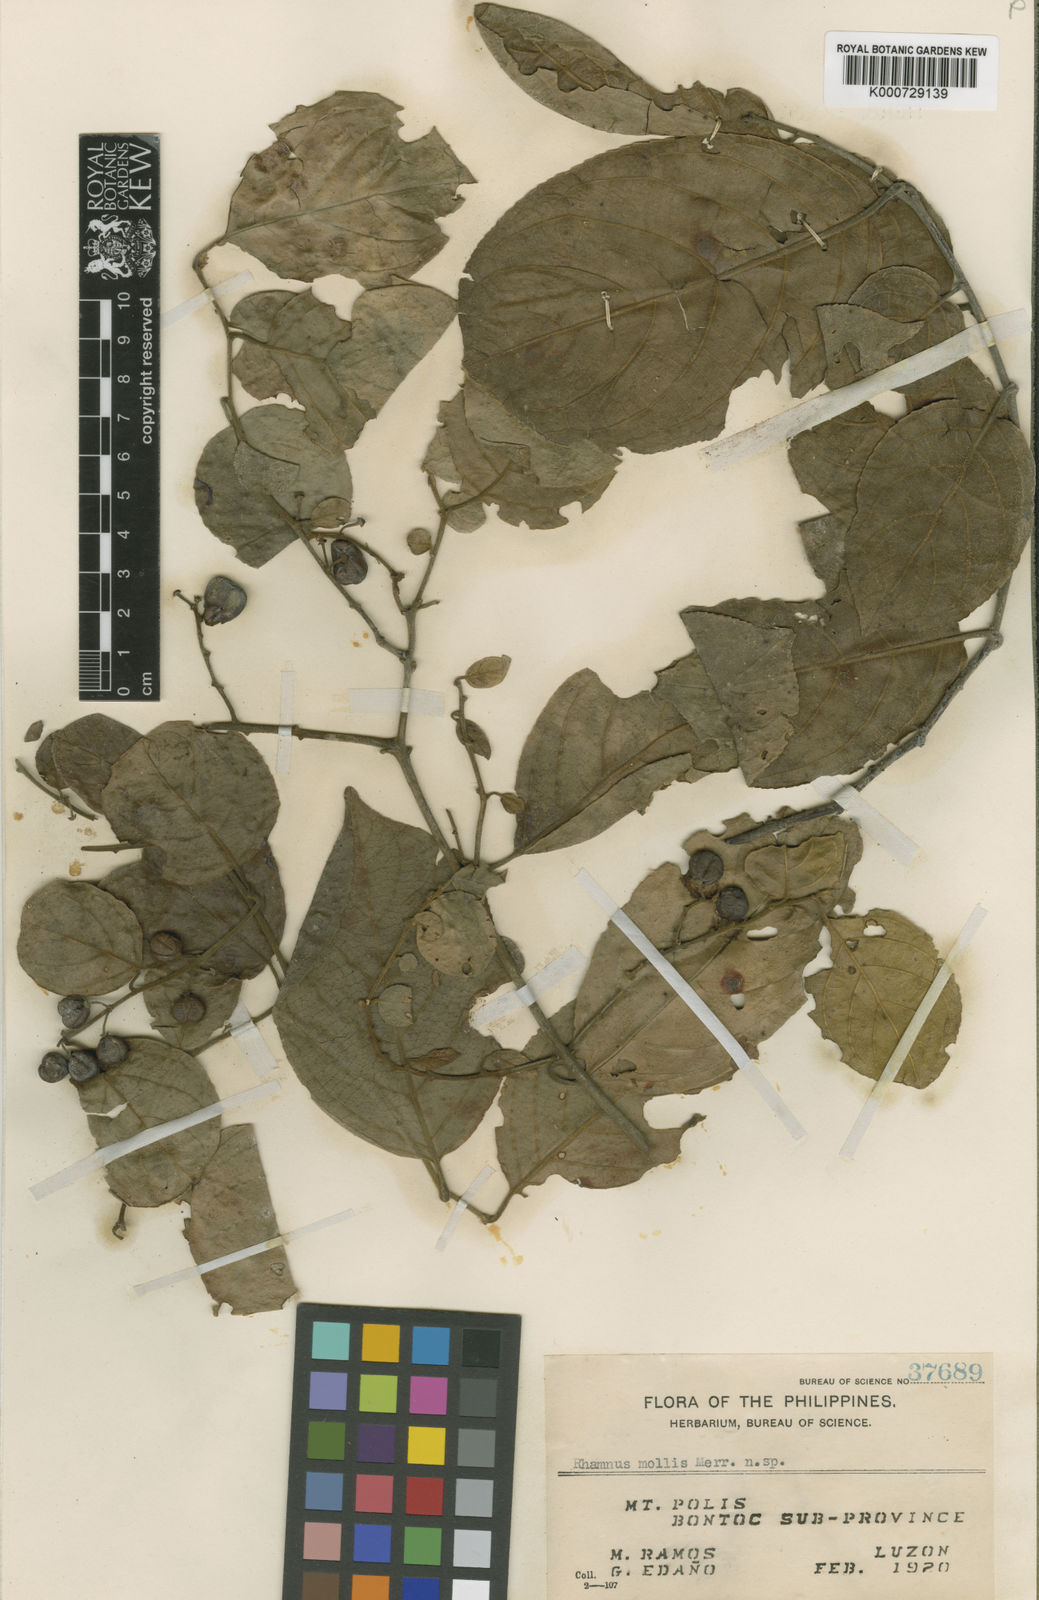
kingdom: Plantae
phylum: Tracheophyta
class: Magnoliopsida
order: Rosales
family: Rhamnaceae
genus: Rhamnus
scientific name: Rhamnus mollis
